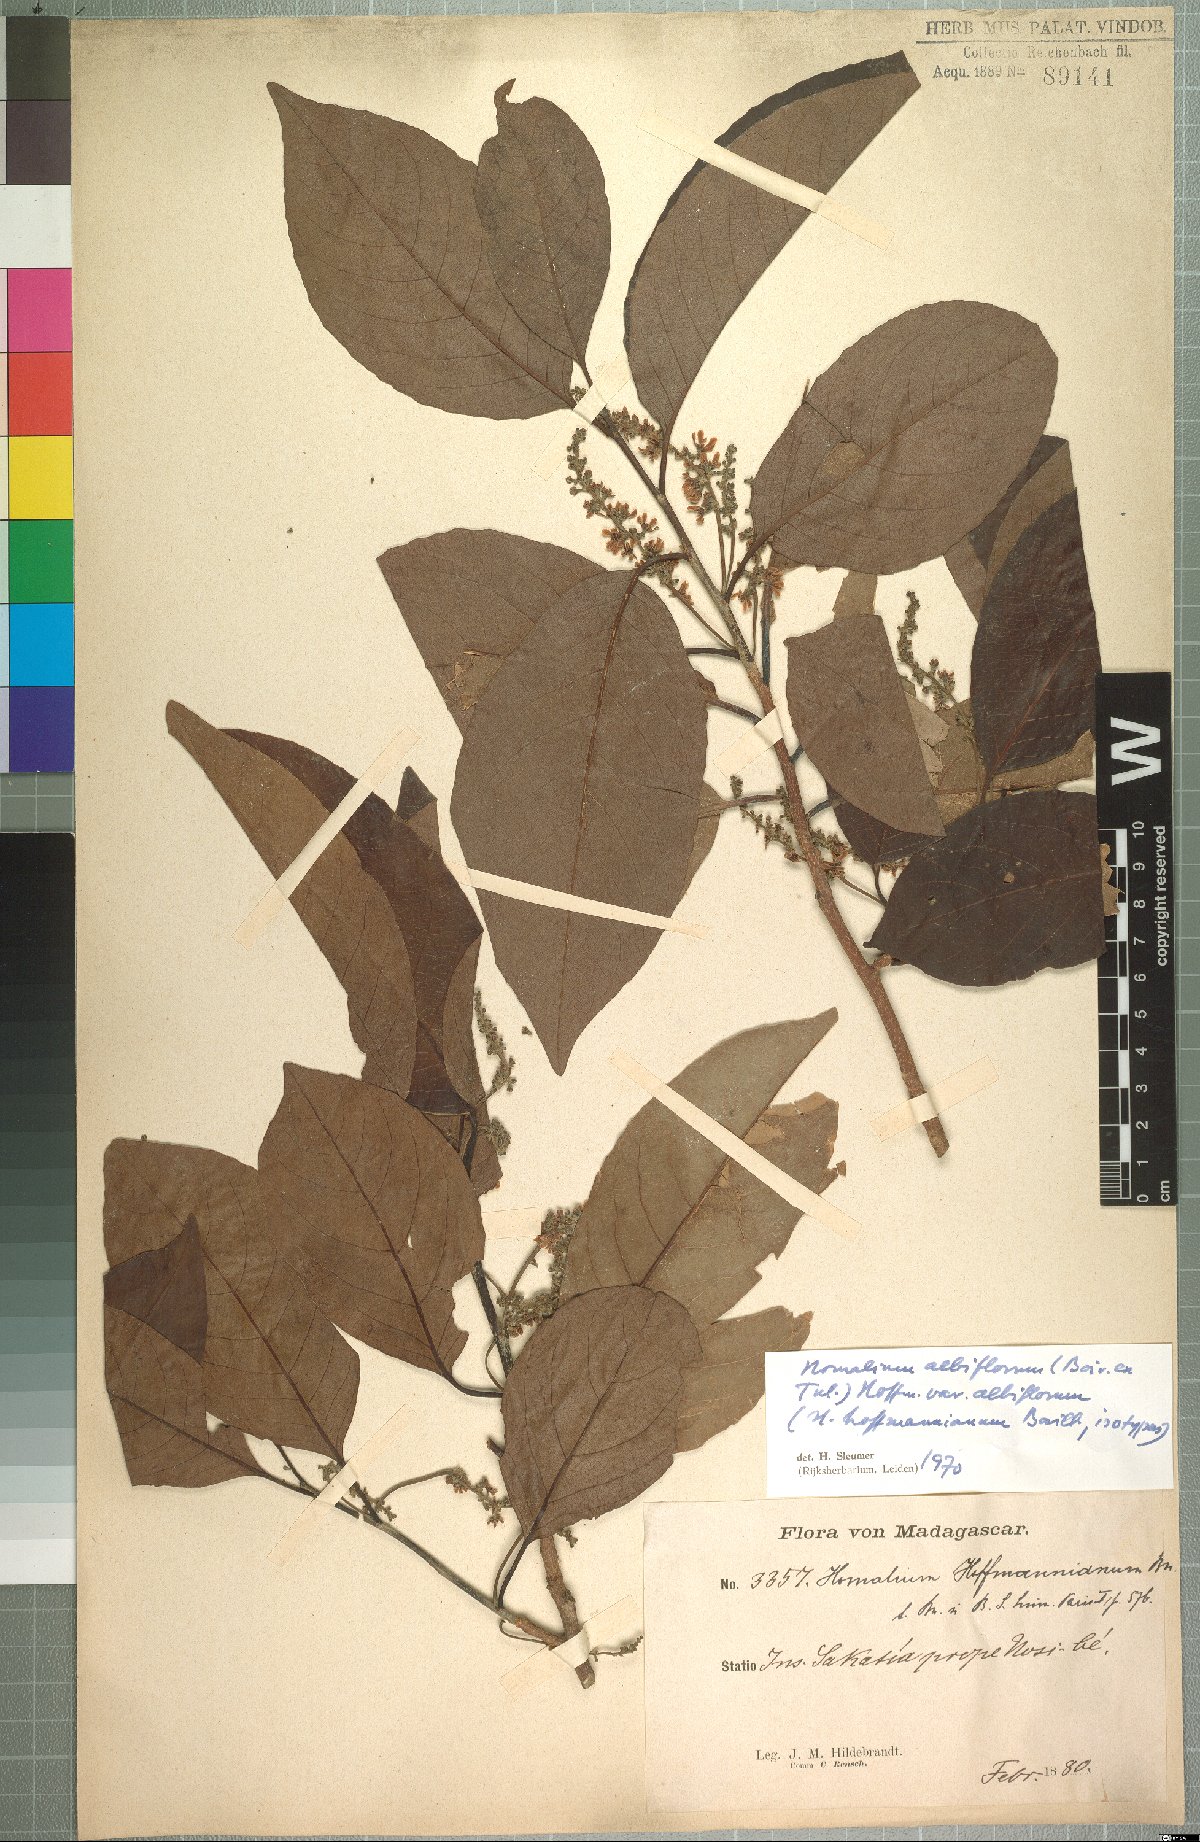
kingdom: Plantae
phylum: Tracheophyta
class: Magnoliopsida
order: Malpighiales
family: Salicaceae
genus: Homalium
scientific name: Homalium albiflorum
